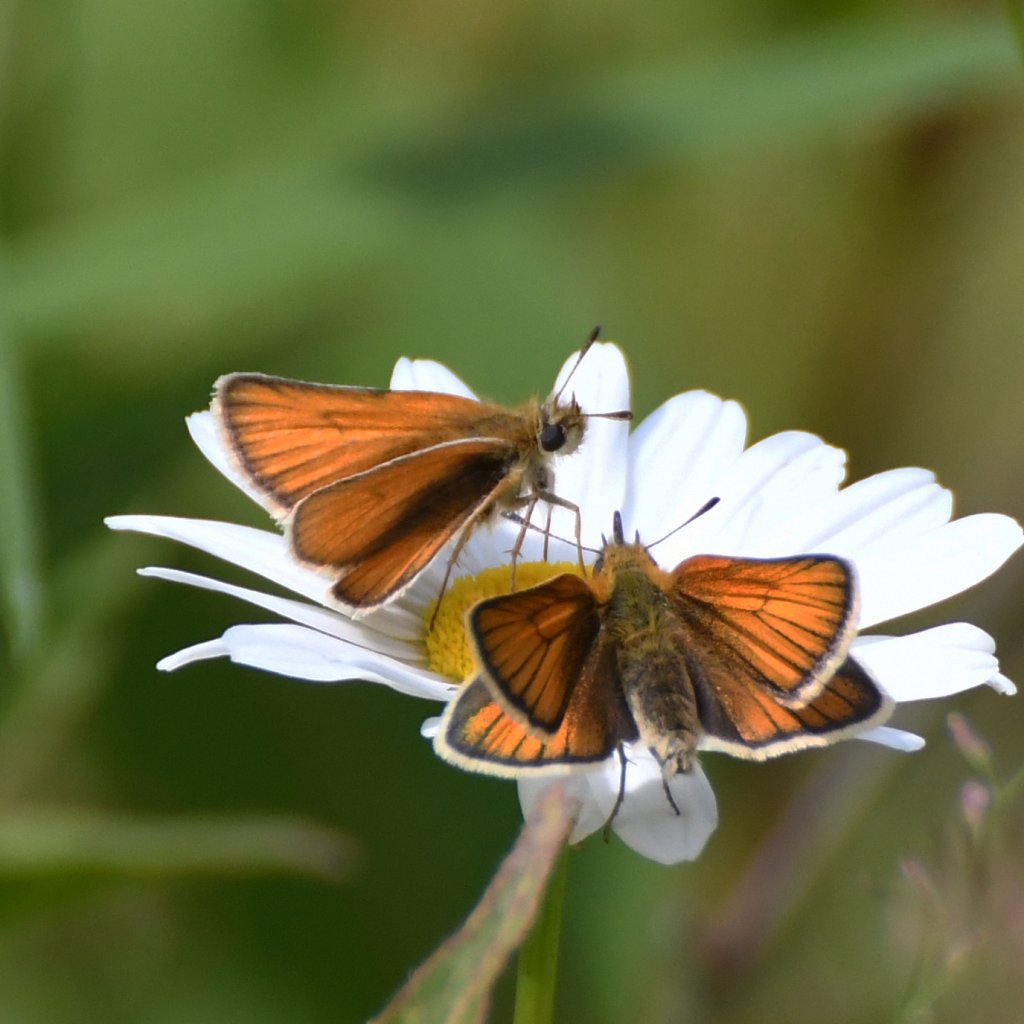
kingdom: Animalia
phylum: Arthropoda
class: Insecta
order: Lepidoptera
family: Hesperiidae
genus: Thymelicus
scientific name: Thymelicus lineola
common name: European Skipper
